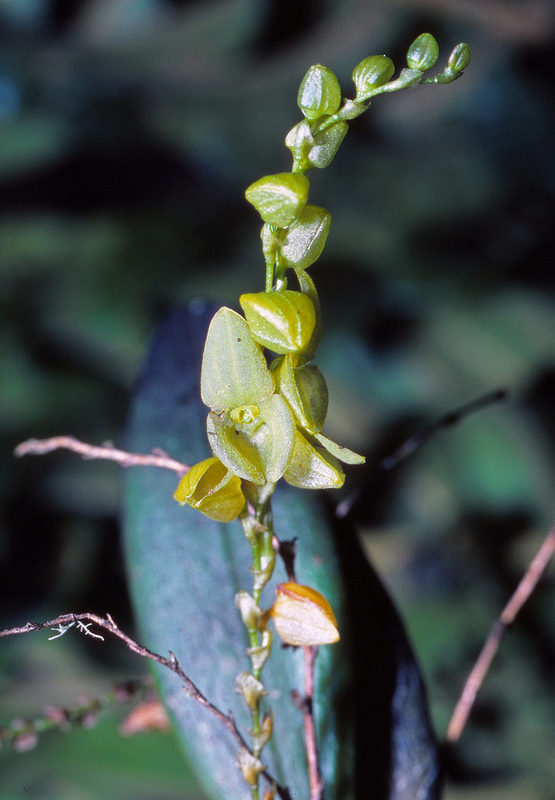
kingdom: Plantae
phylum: Tracheophyta
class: Liliopsida
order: Asparagales
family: Orchidaceae
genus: Stelis
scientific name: Stelis cajanumae
